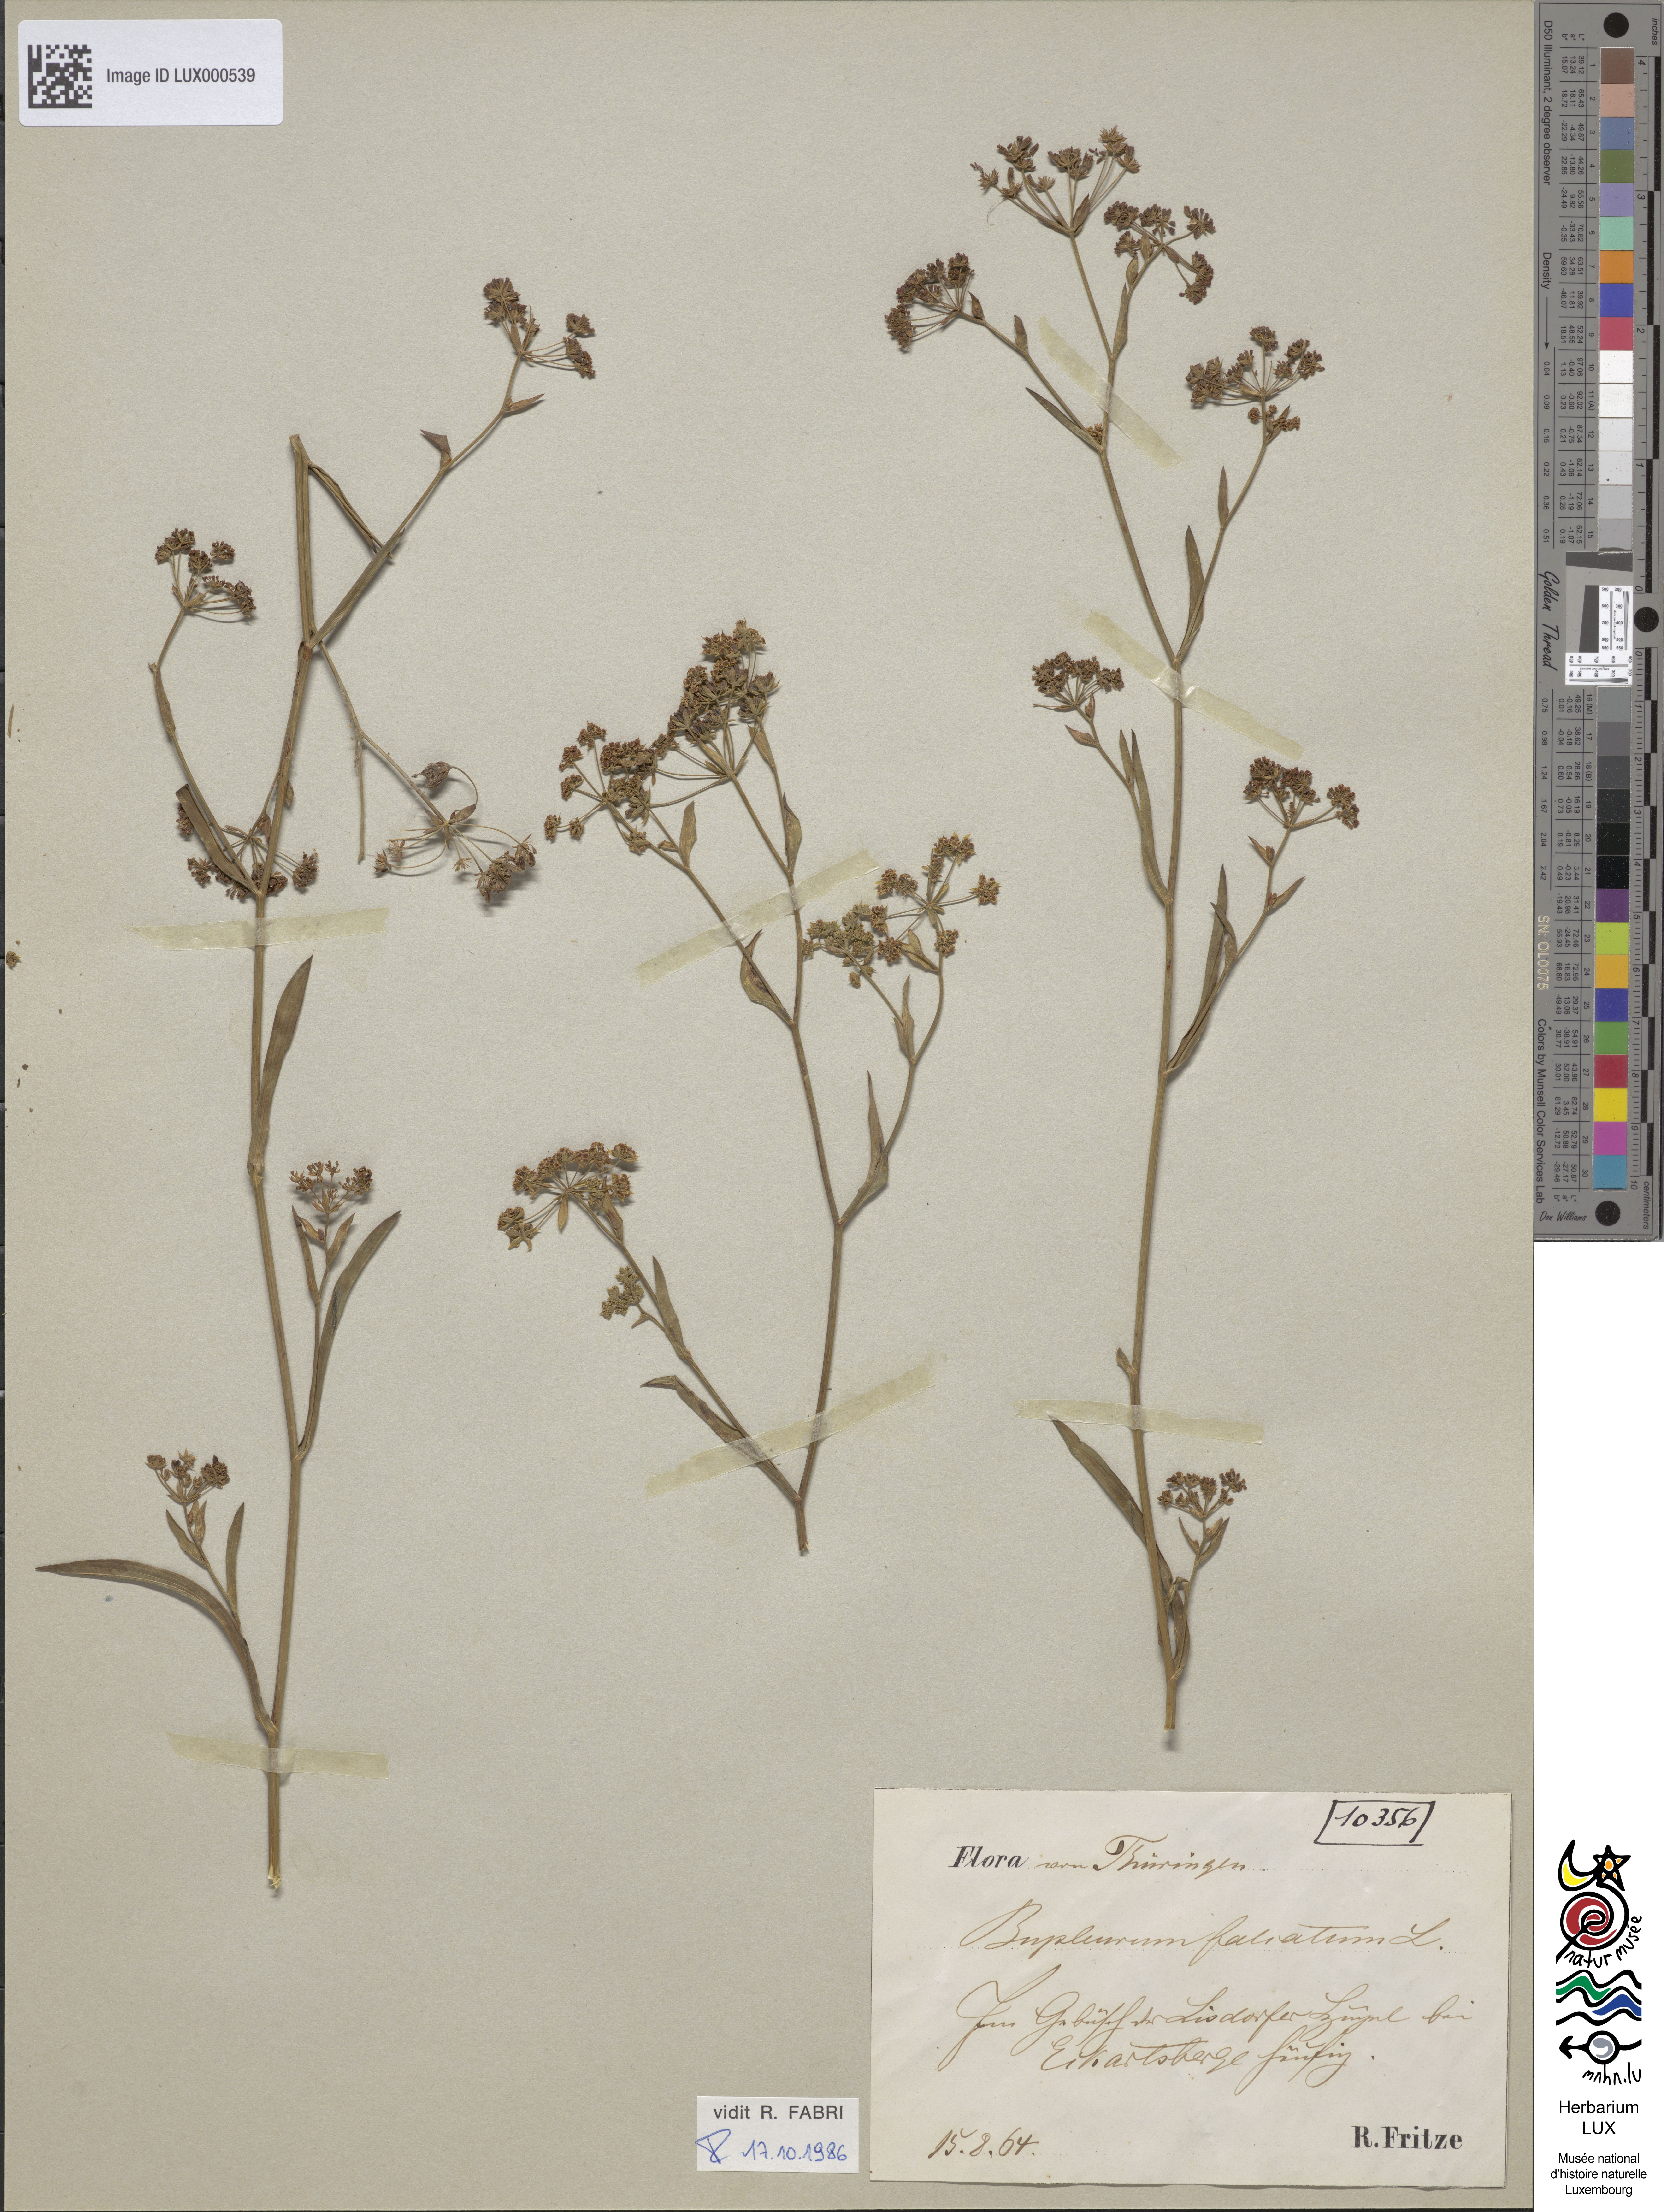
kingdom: Plantae
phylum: Tracheophyta
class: Magnoliopsida
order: Apiales
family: Apiaceae
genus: Bupleurum
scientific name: Bupleurum falcatum
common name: Sickle-leaved hare's-ear
